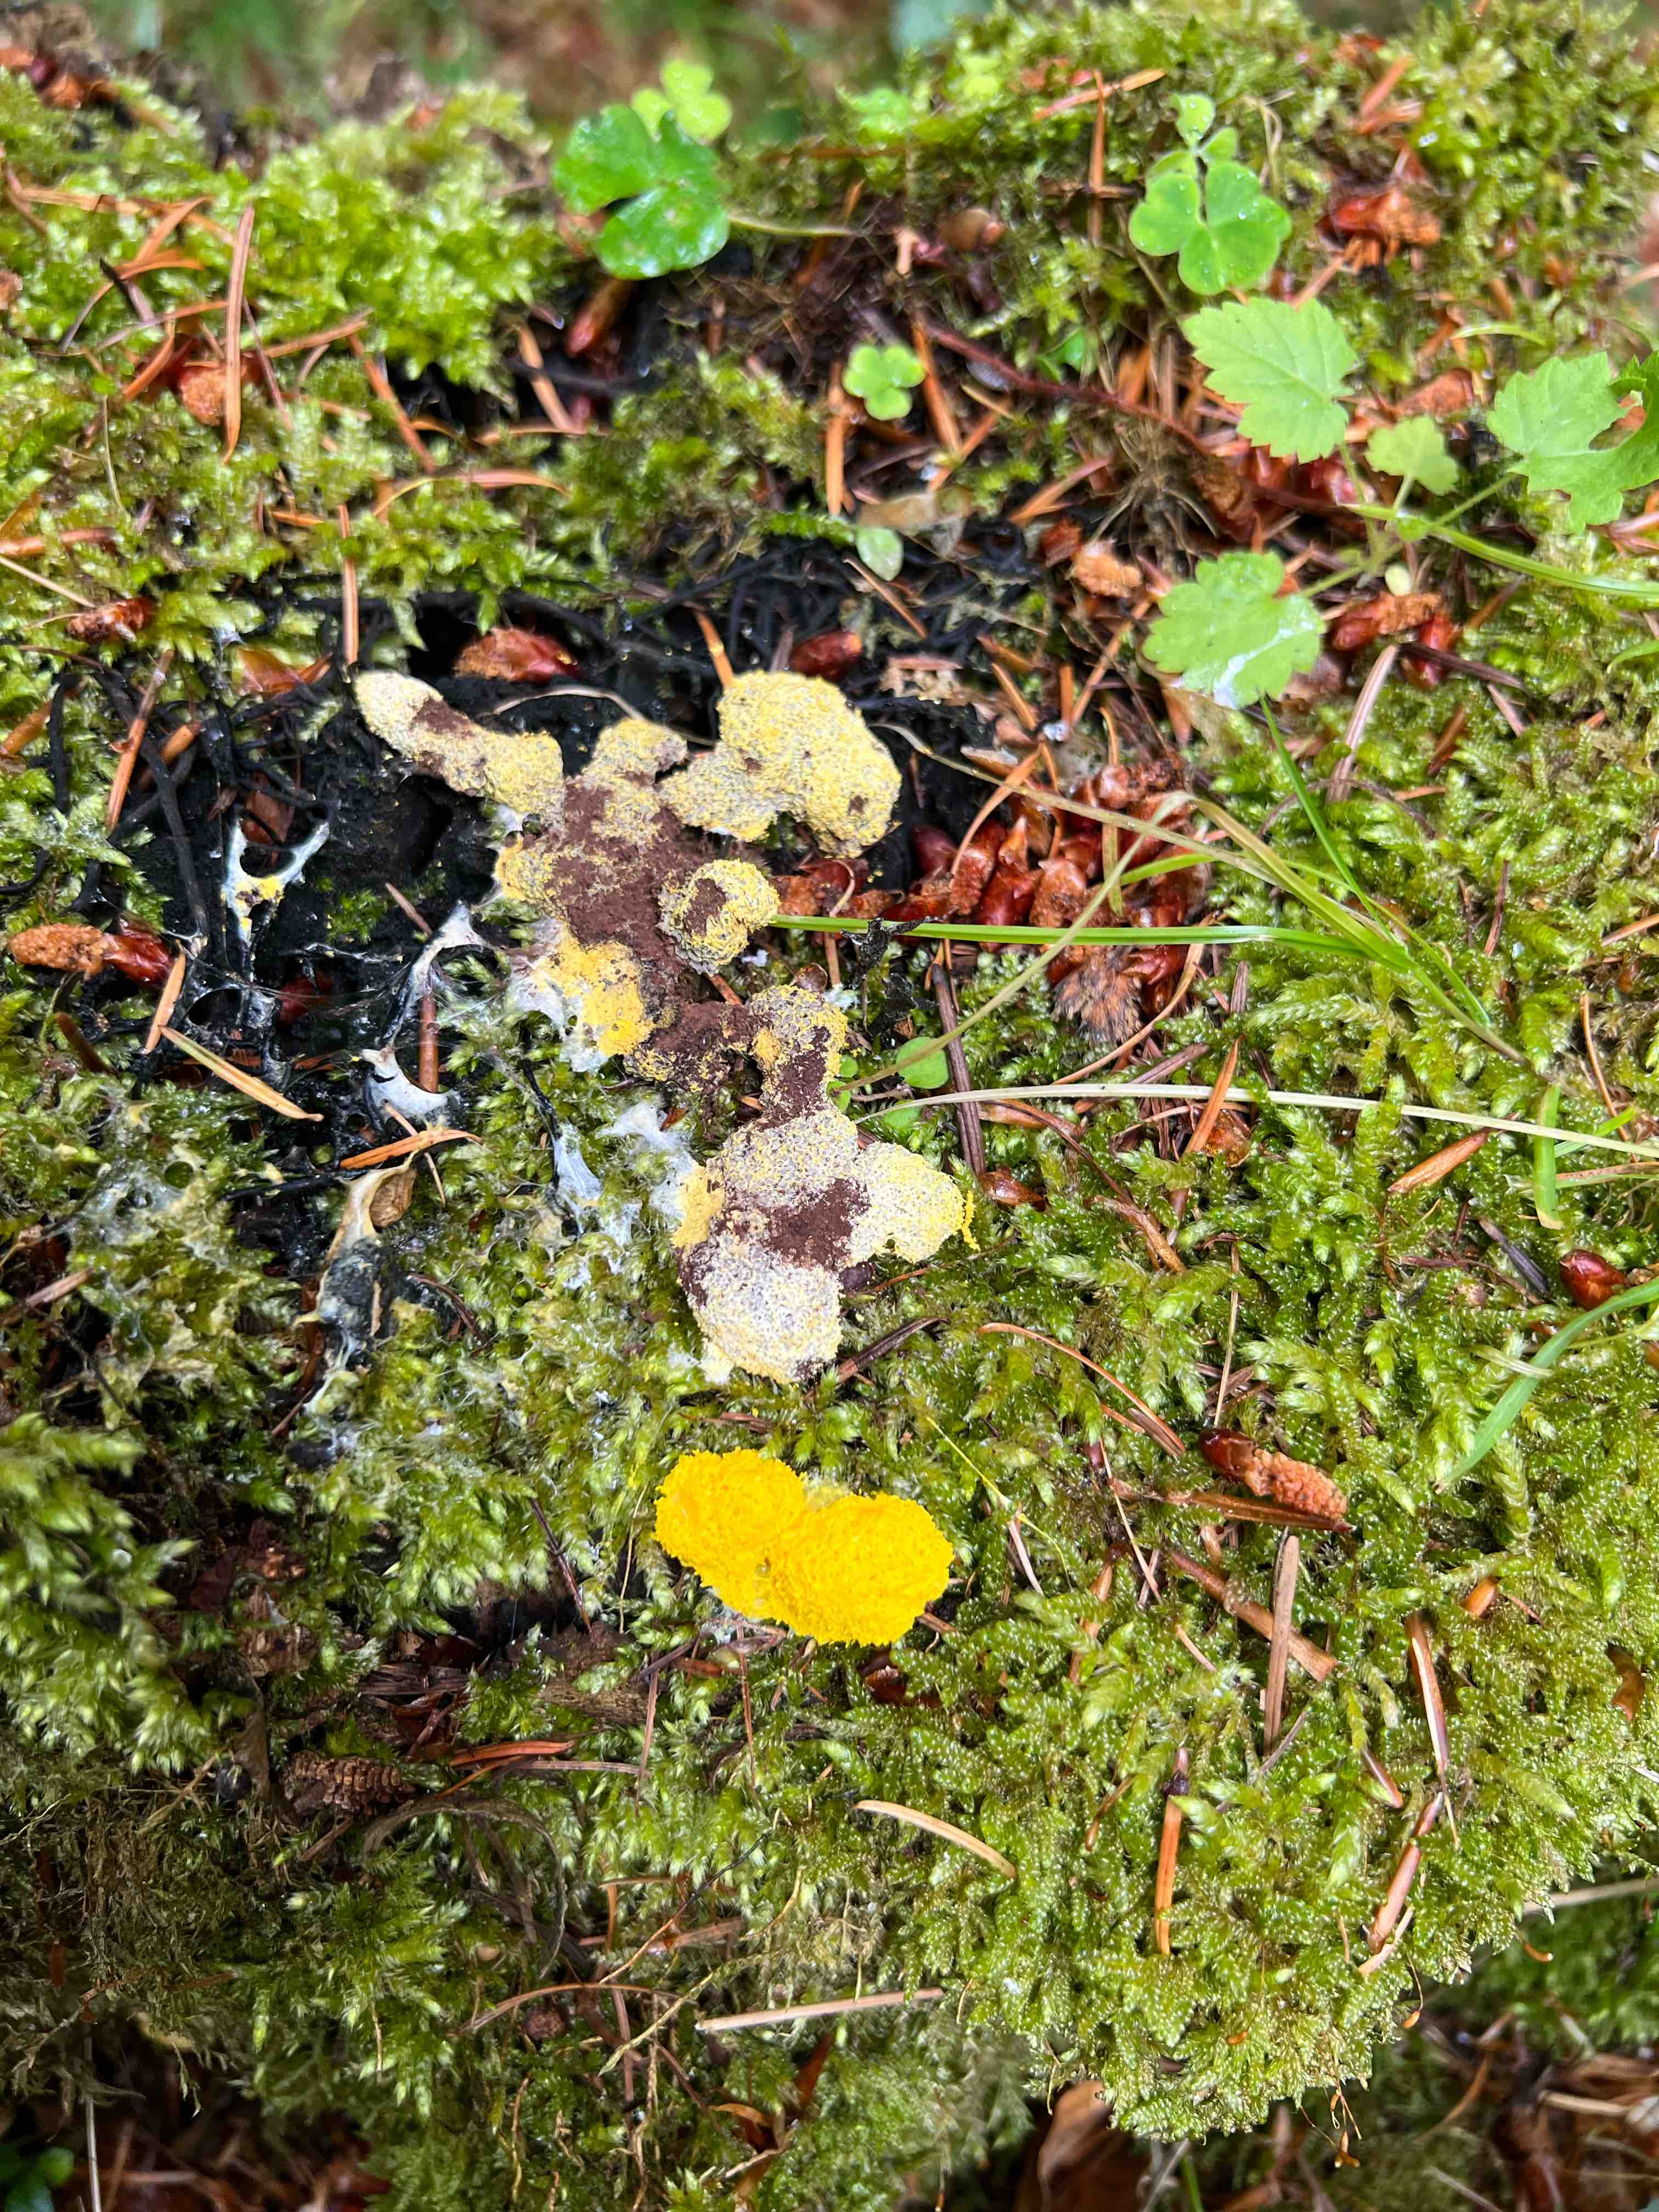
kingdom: Protozoa
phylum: Mycetozoa
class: Myxomycetes
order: Physarales
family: Physaraceae
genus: Fuligo
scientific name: Fuligo septica
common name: gul troldsmør
